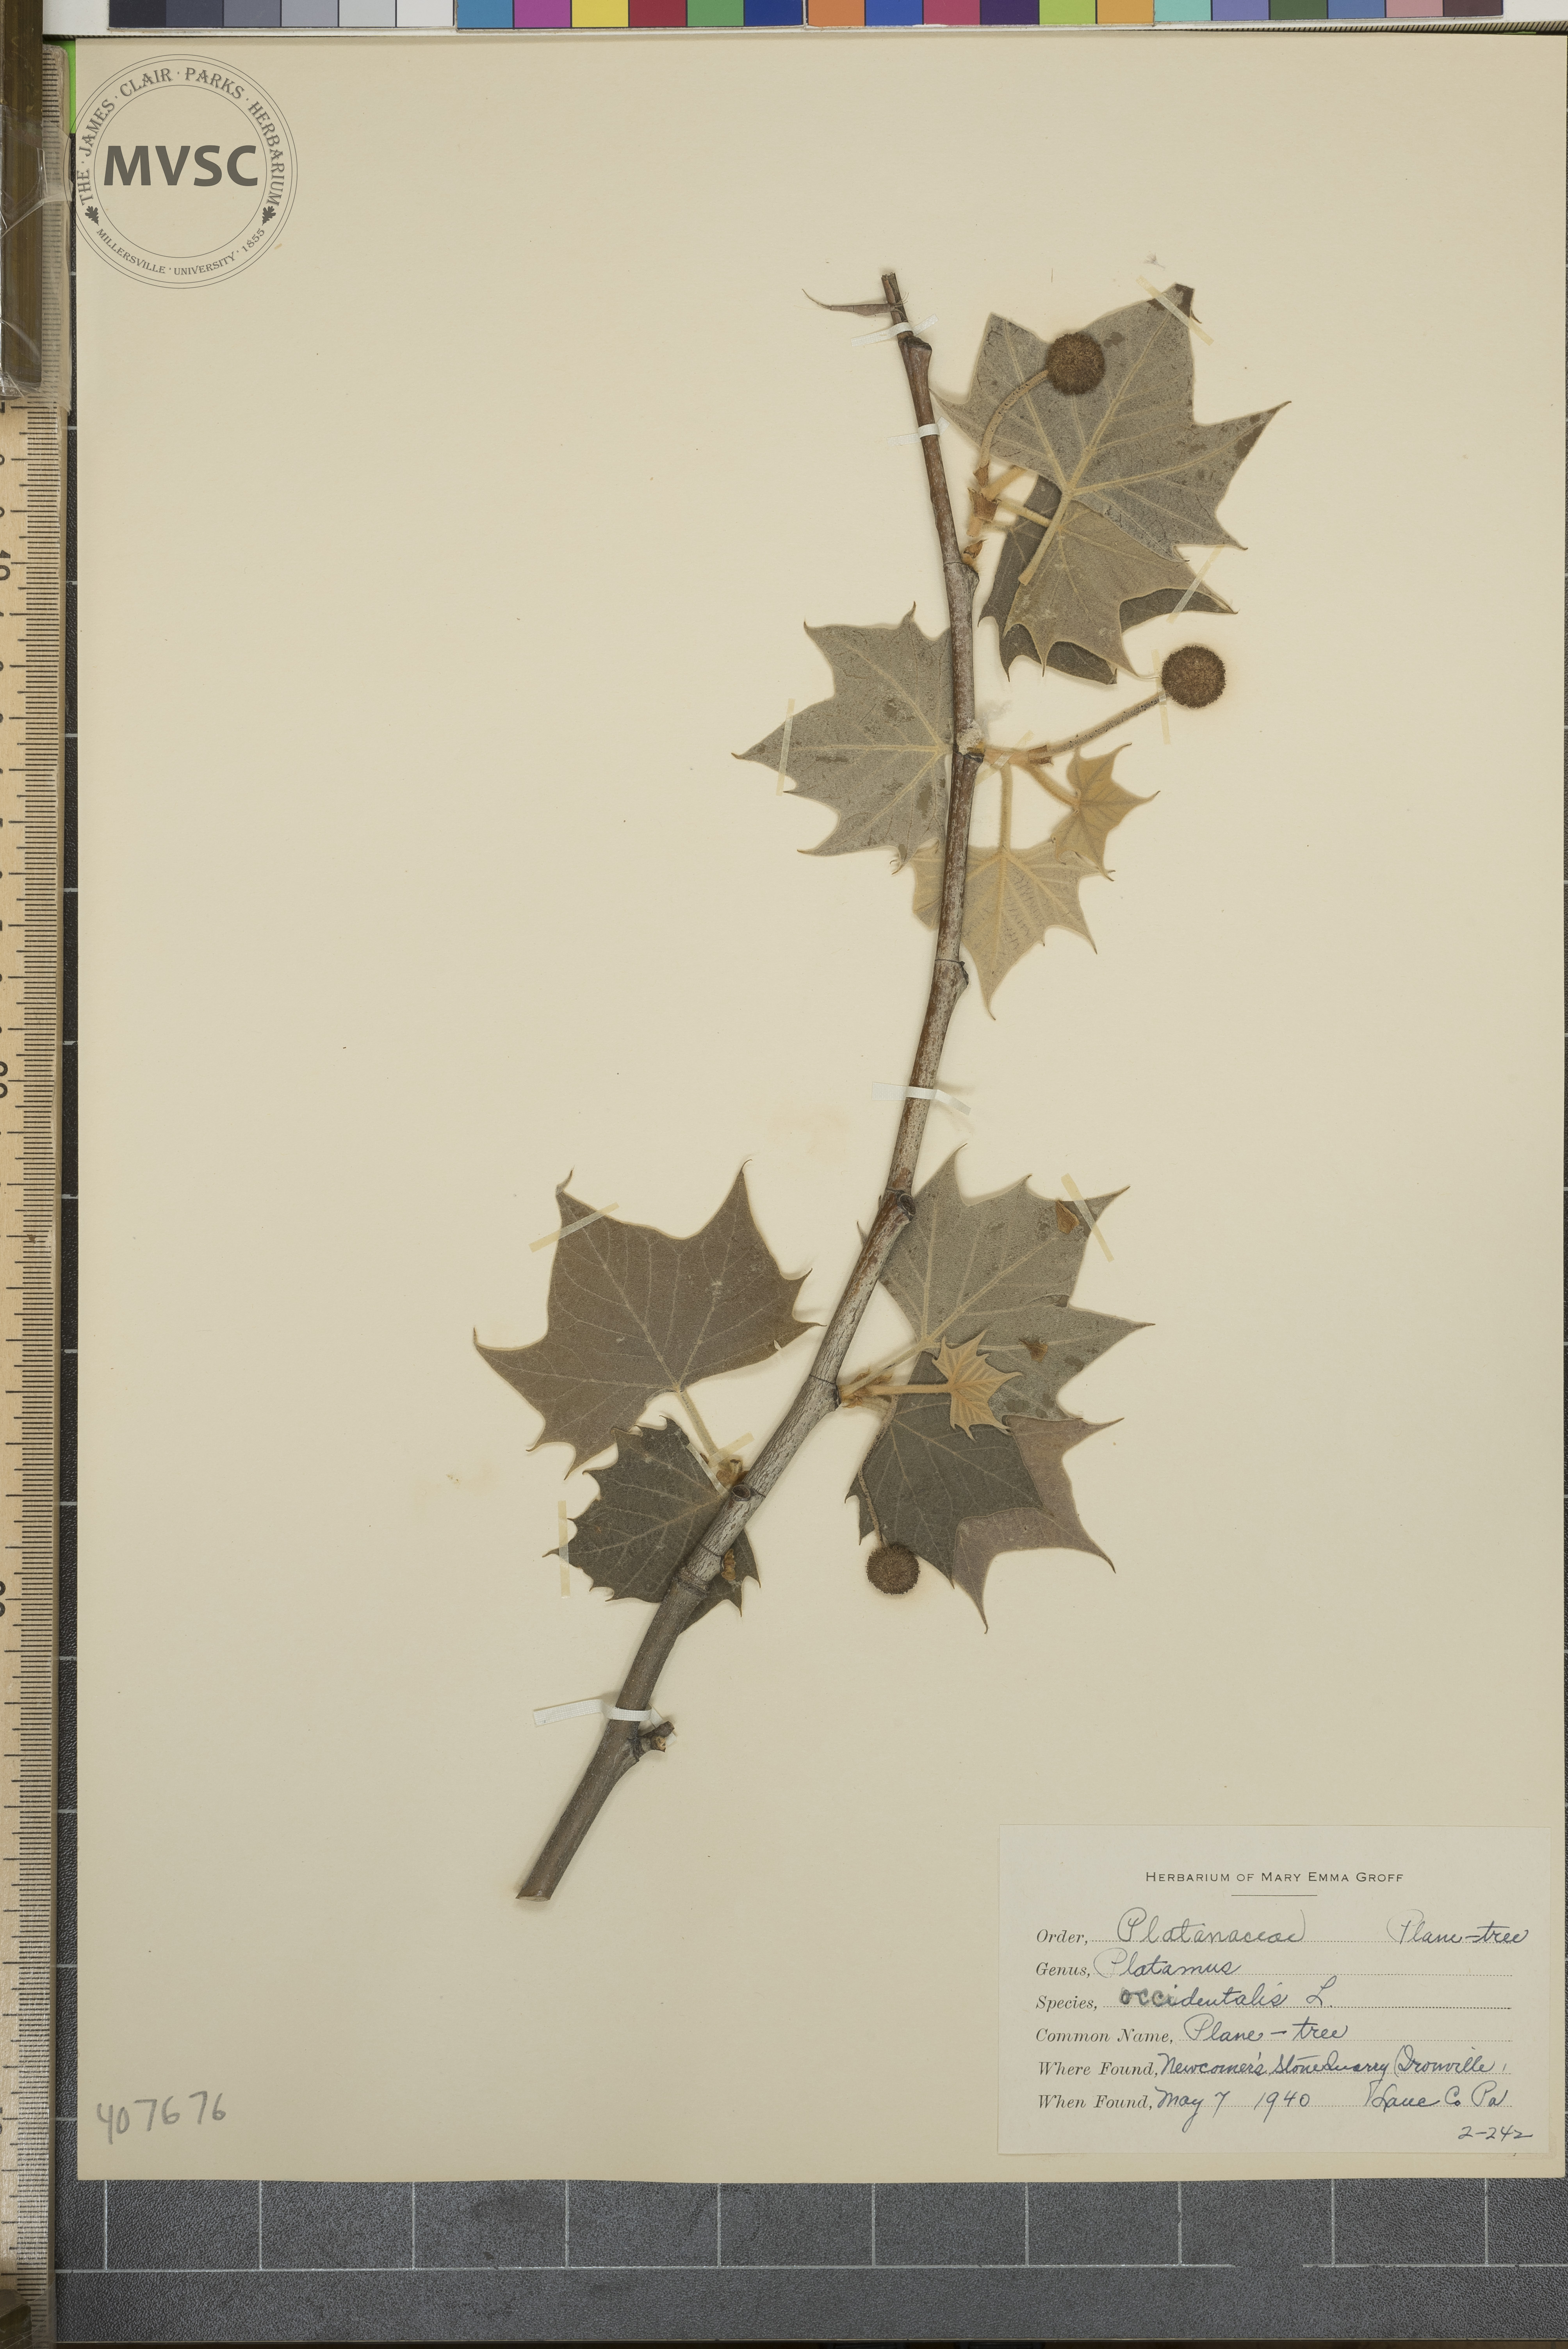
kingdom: Plantae
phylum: Tracheophyta
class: Magnoliopsida
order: Proteales
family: Platanaceae
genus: Platanus
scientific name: Platanus occidentalis
